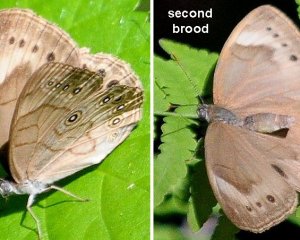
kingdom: Animalia
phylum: Arthropoda
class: Insecta
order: Lepidoptera
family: Nymphalidae
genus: Lethe
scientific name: Lethe eurydice
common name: Appalachian Eyed Brown
